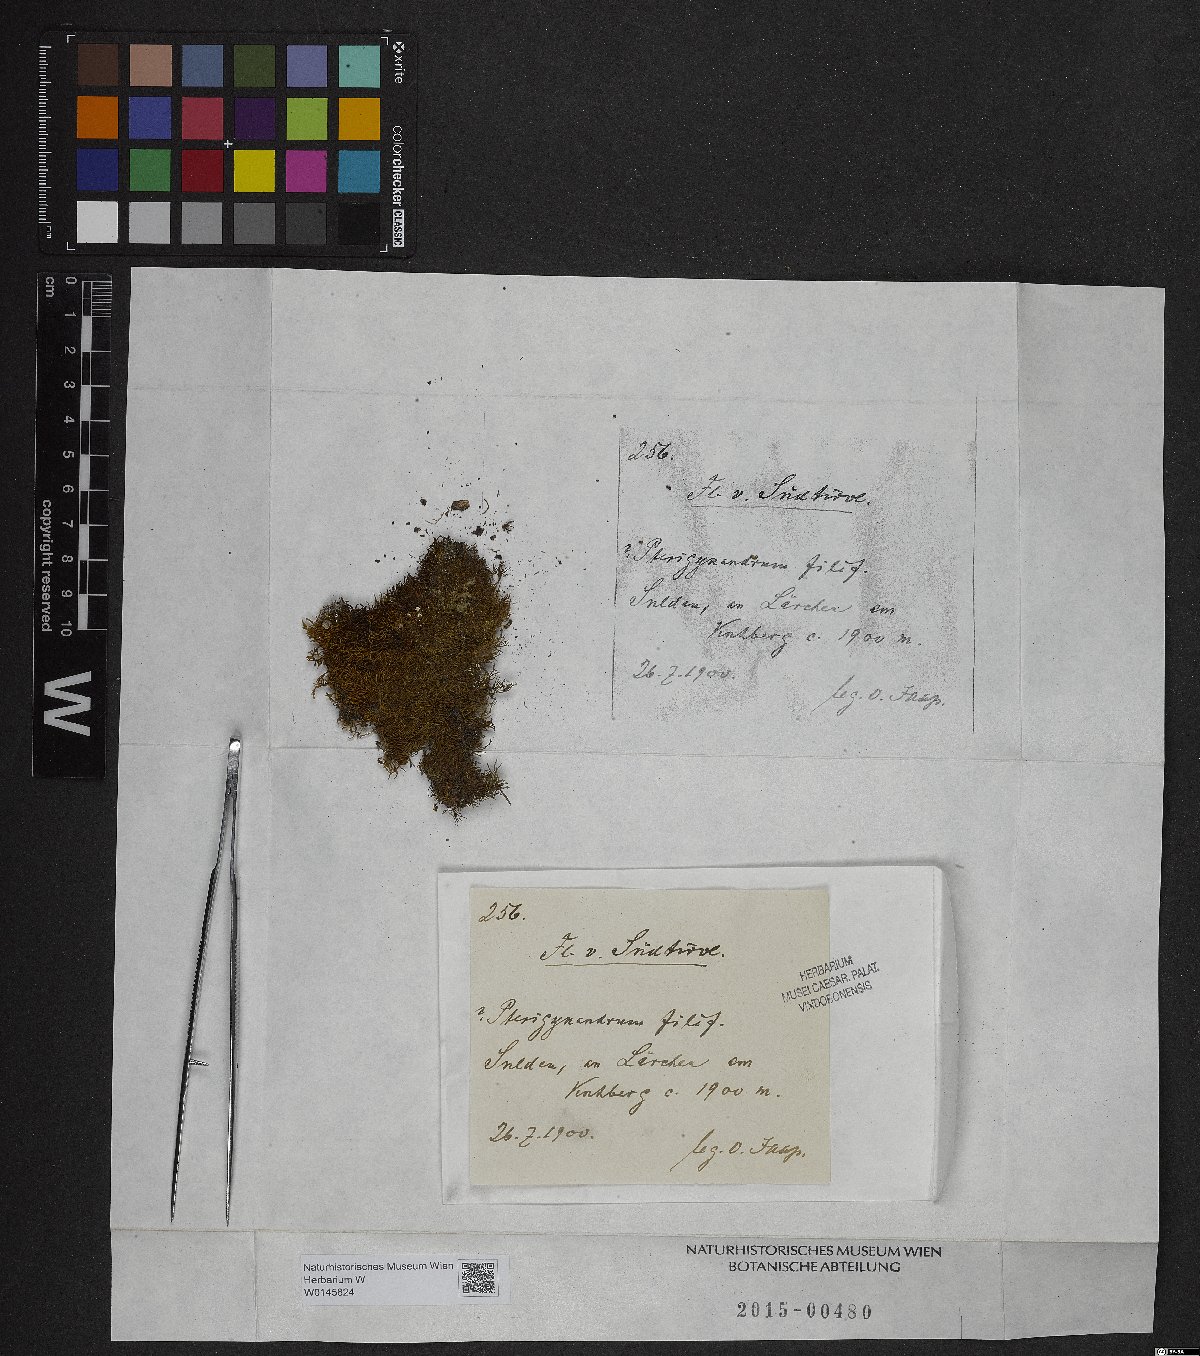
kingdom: Plantae
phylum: Bryophyta
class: Bryopsida
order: Hypnales
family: Pterigynandraceae
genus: Pterigynandrum
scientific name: Pterigynandrum filiforme
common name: Capillary wing moss
